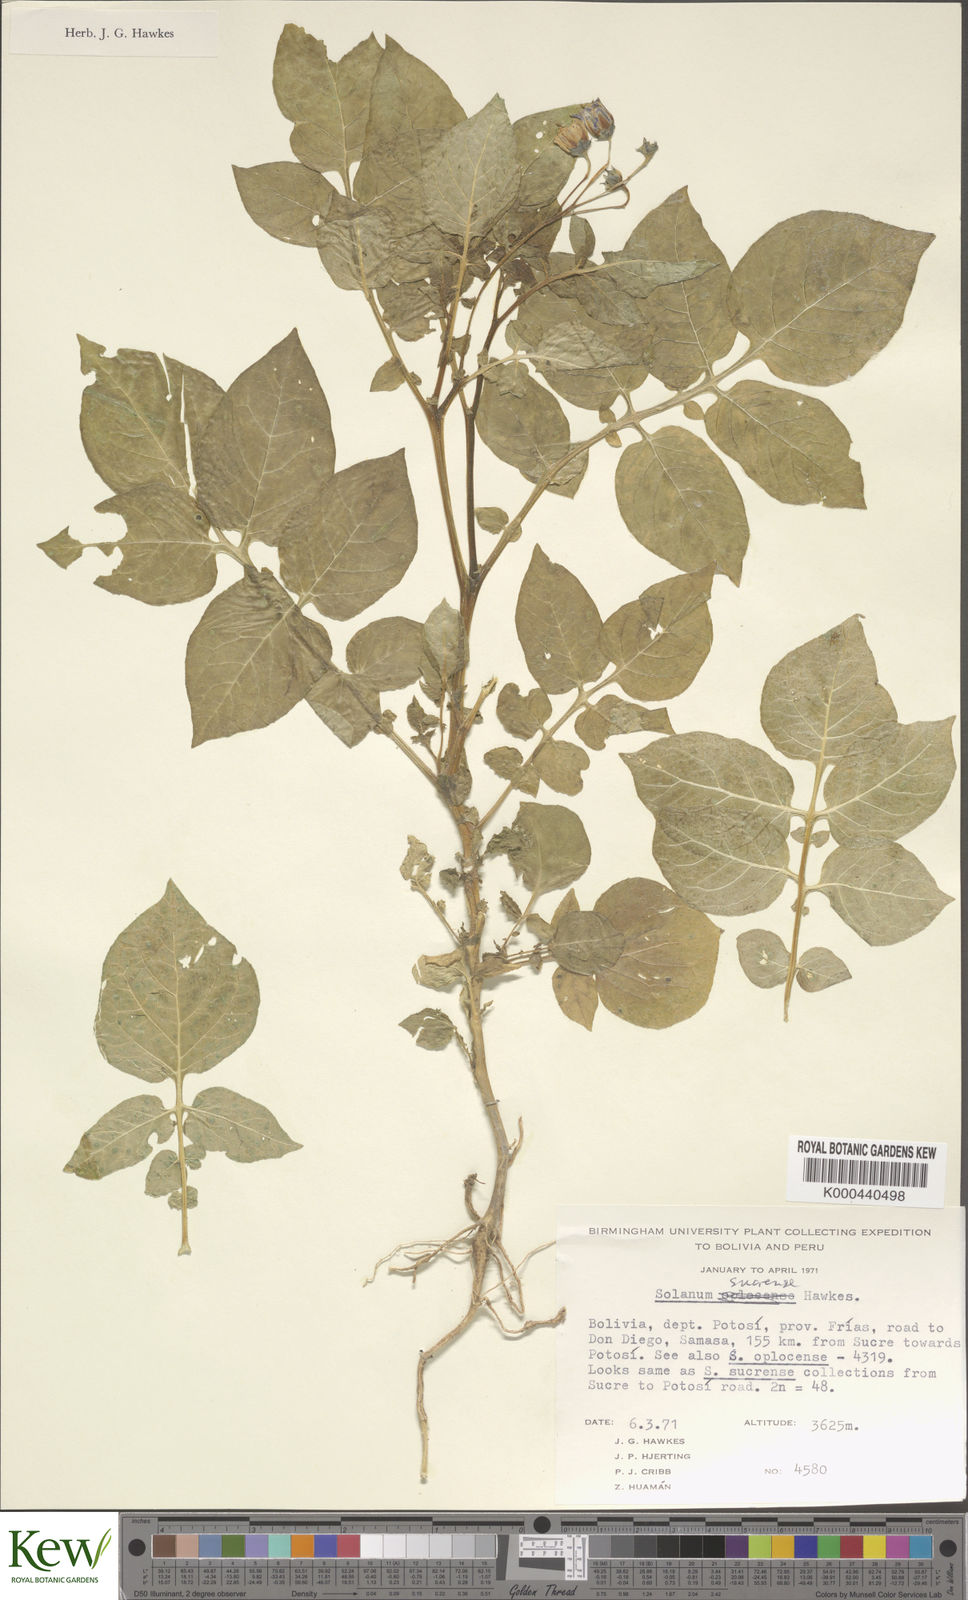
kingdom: Plantae
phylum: Tracheophyta
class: Magnoliopsida
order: Solanales
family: Solanaceae
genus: Solanum
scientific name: Solanum brevicaule
